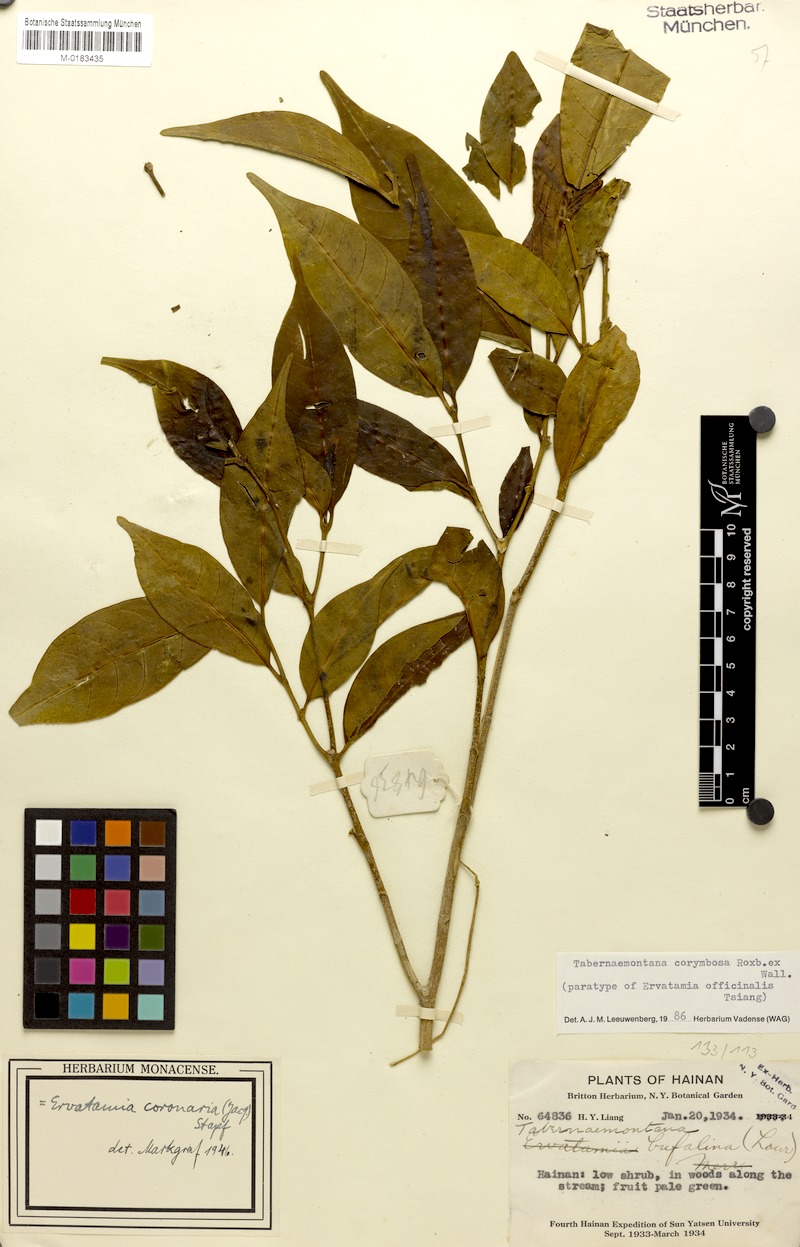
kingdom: Plantae
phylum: Tracheophyta
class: Magnoliopsida
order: Gentianales
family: Apocynaceae
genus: Tabernaemontana
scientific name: Tabernaemontana corymbosa
